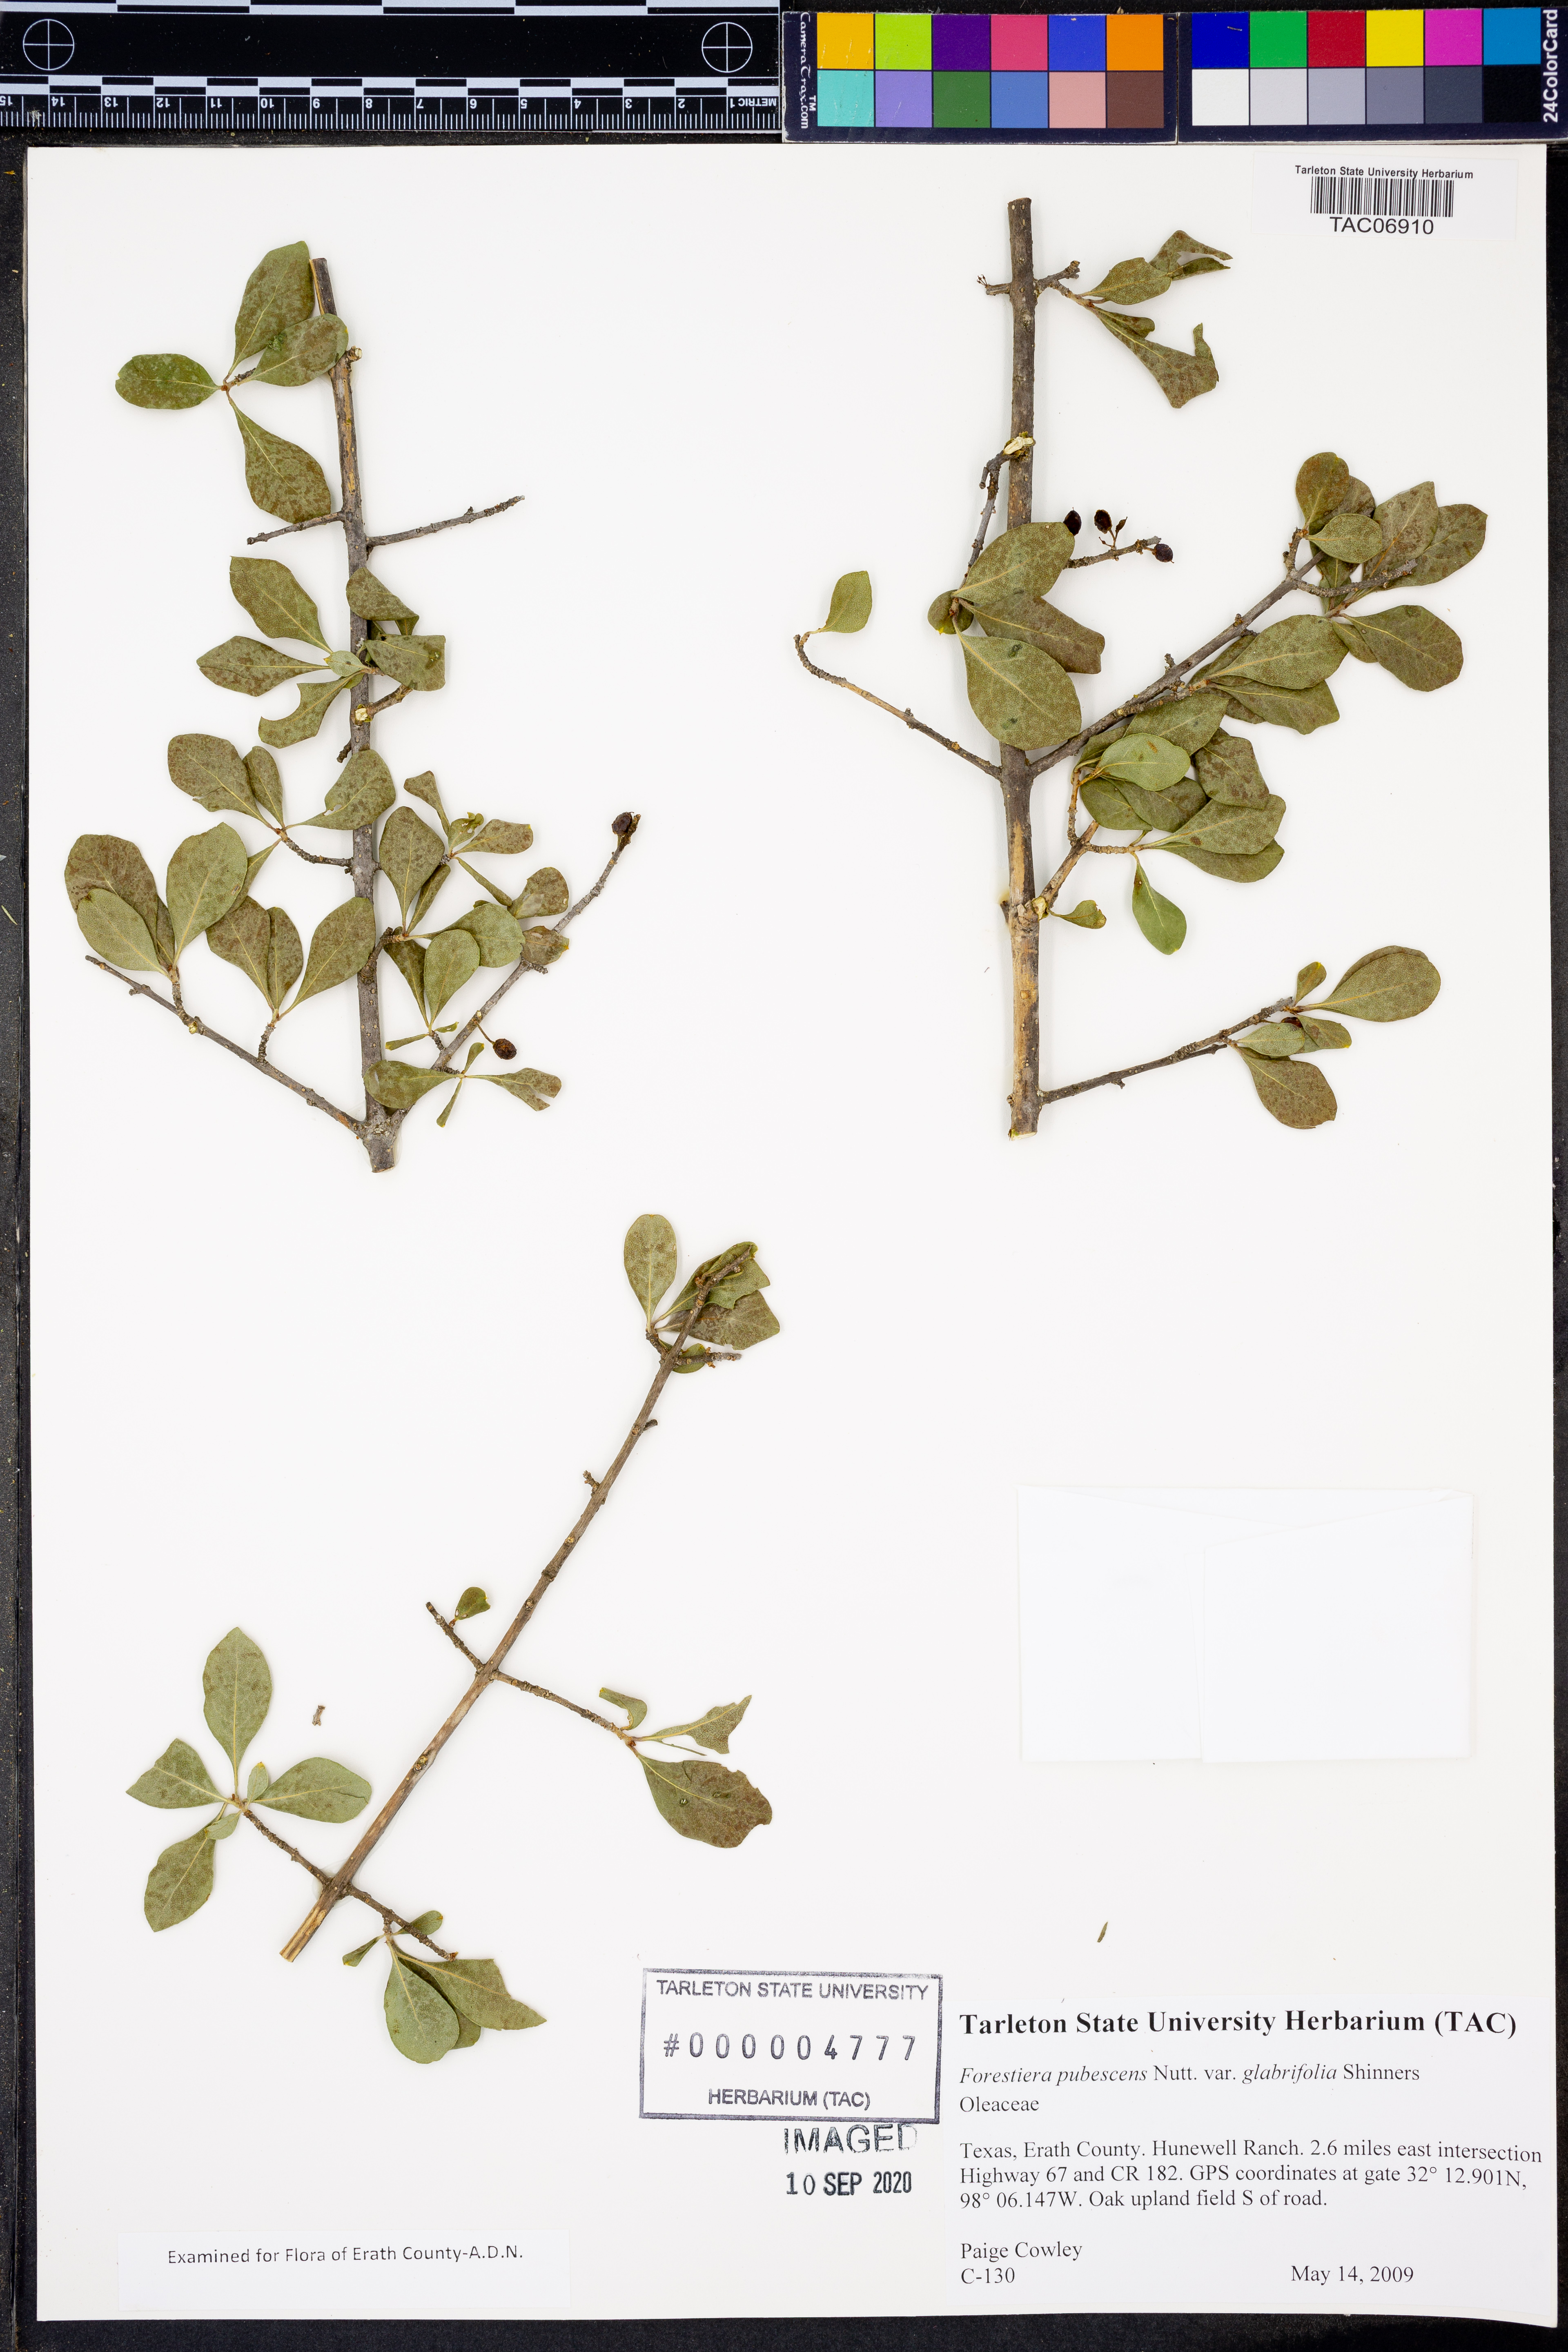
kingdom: Plantae
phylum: Tracheophyta
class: Magnoliopsida
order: Lamiales
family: Oleaceae
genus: Forestiera
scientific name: Forestiera pubescens
